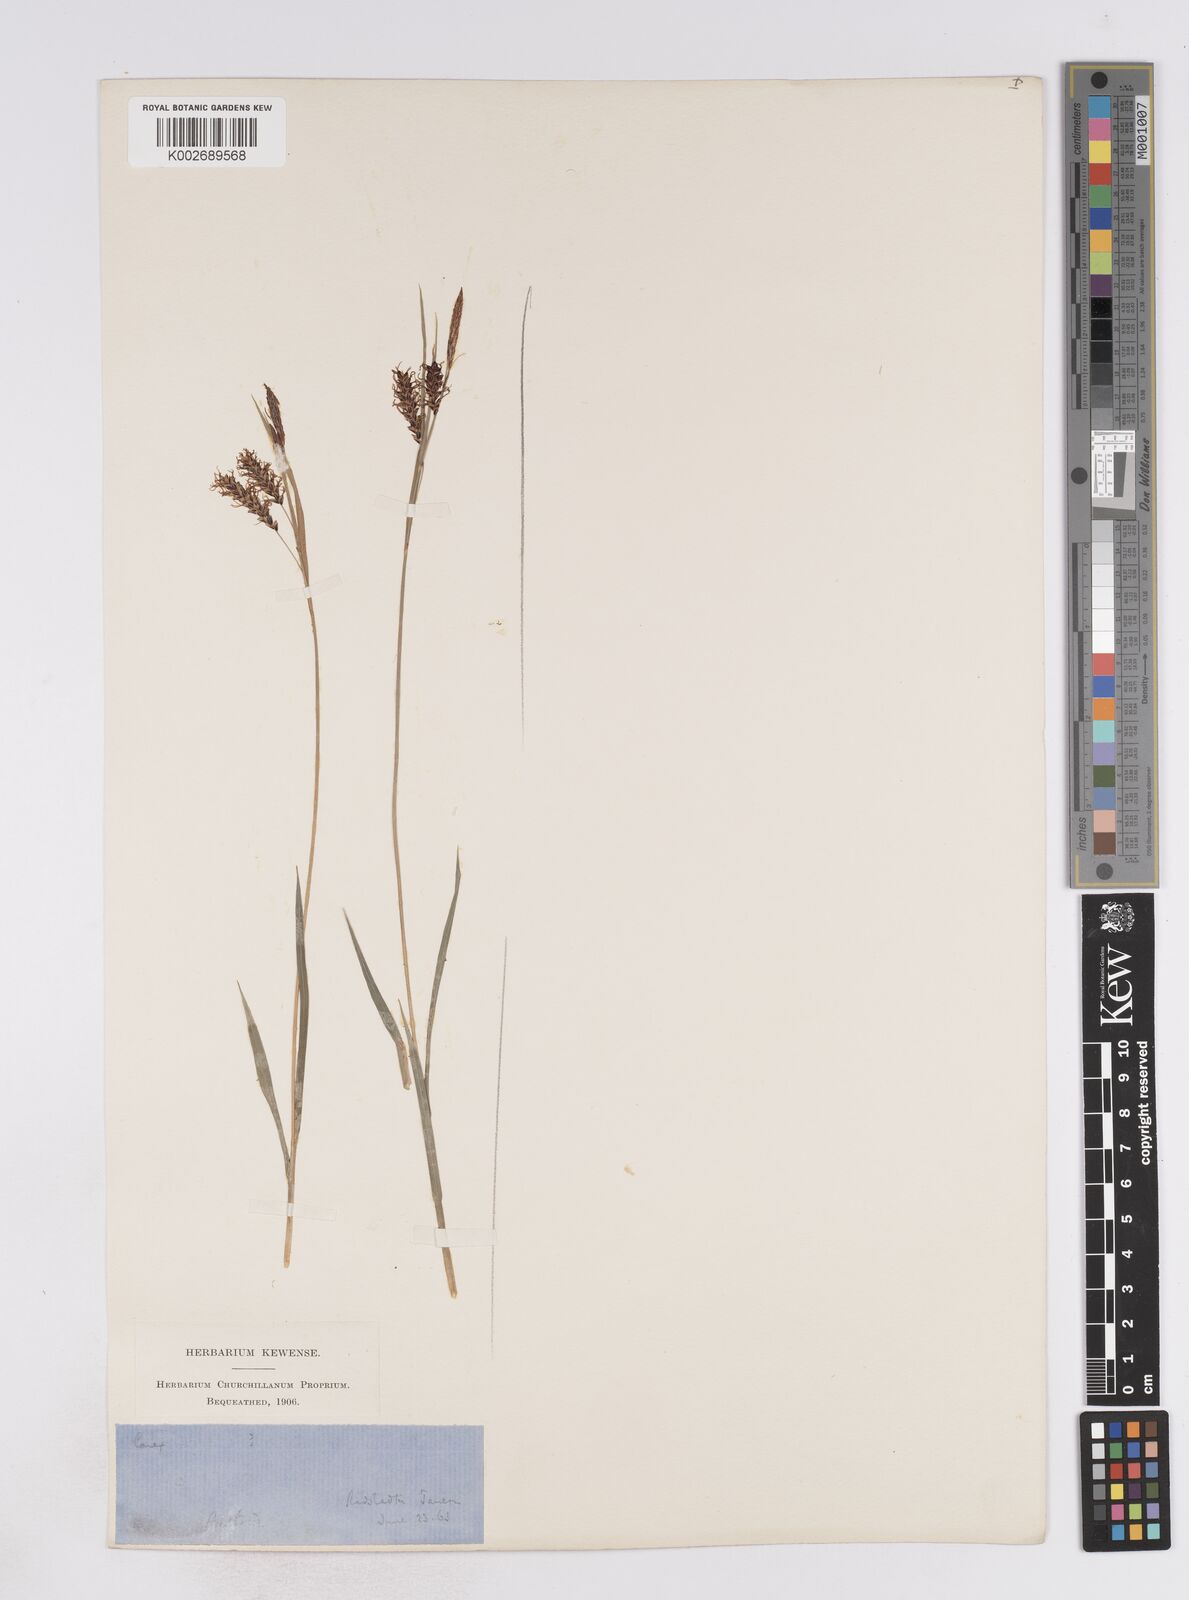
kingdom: Plantae
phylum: Tracheophyta
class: Liliopsida
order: Poales
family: Cyperaceae
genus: Carex
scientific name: Carex flacca
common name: Glaucous sedge
